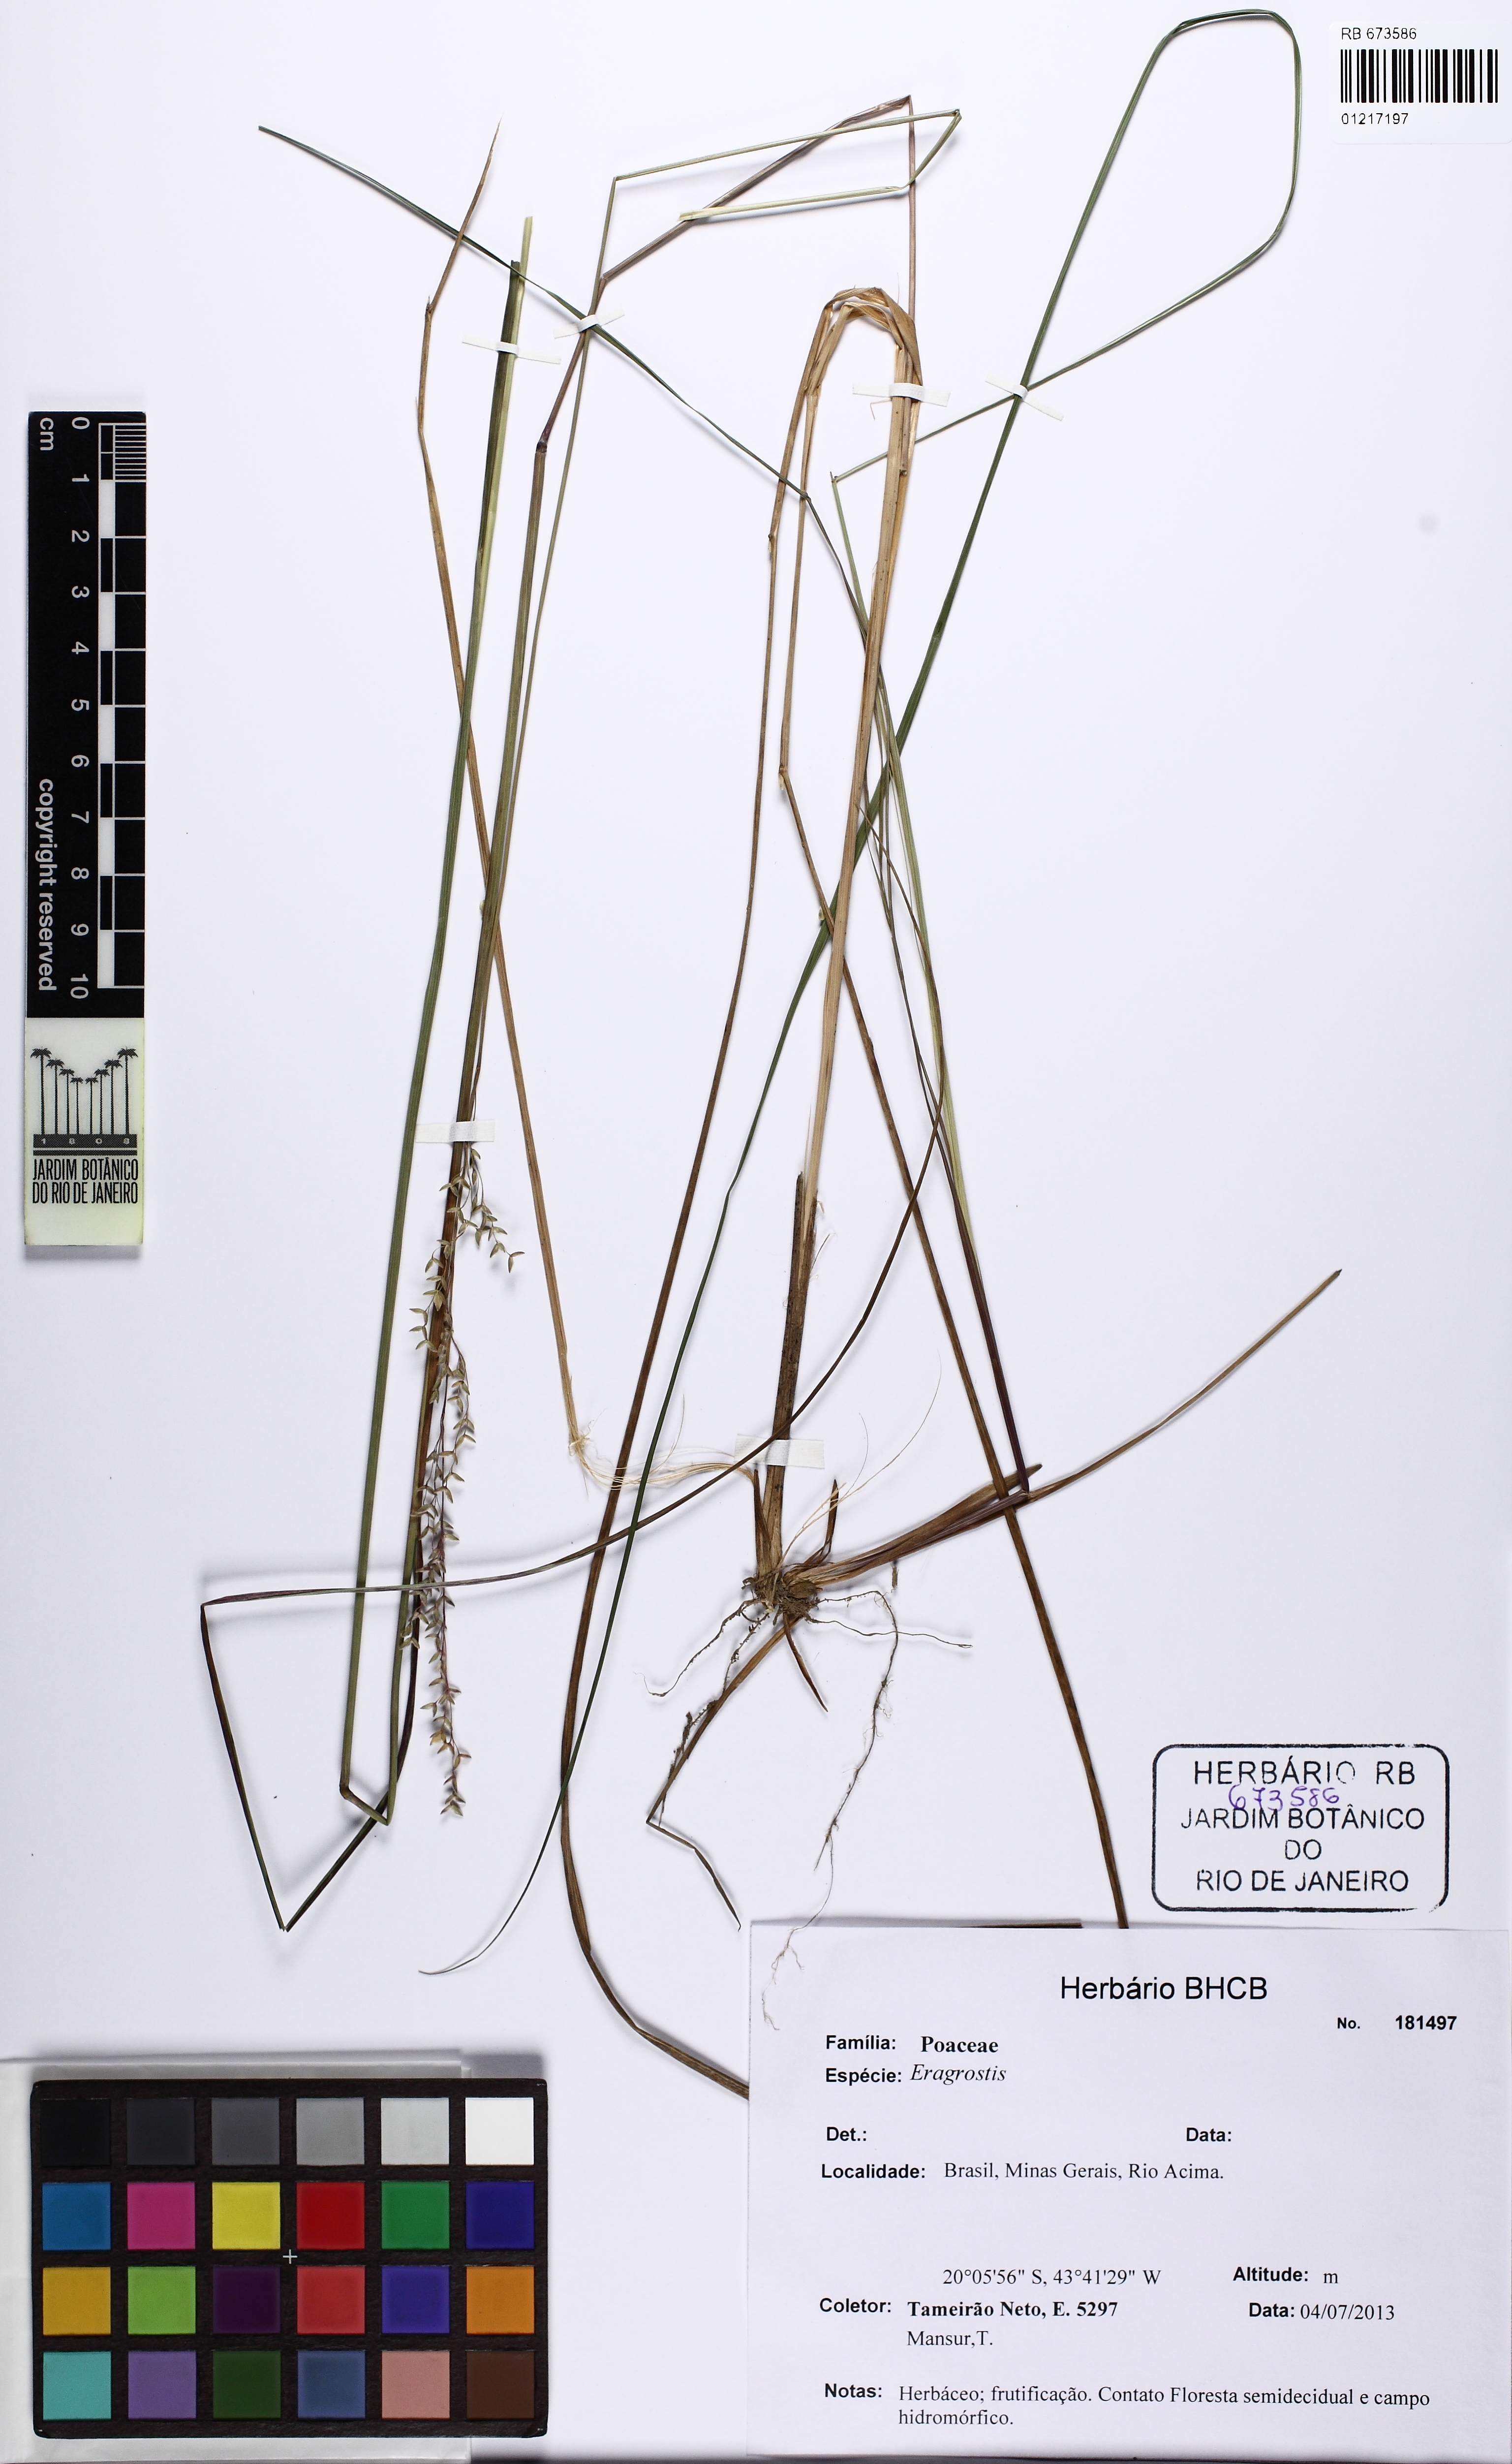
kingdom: Plantae
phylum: Tracheophyta
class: Liliopsida
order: Poales
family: Poaceae
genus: Eragrostis
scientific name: Eragrostis
